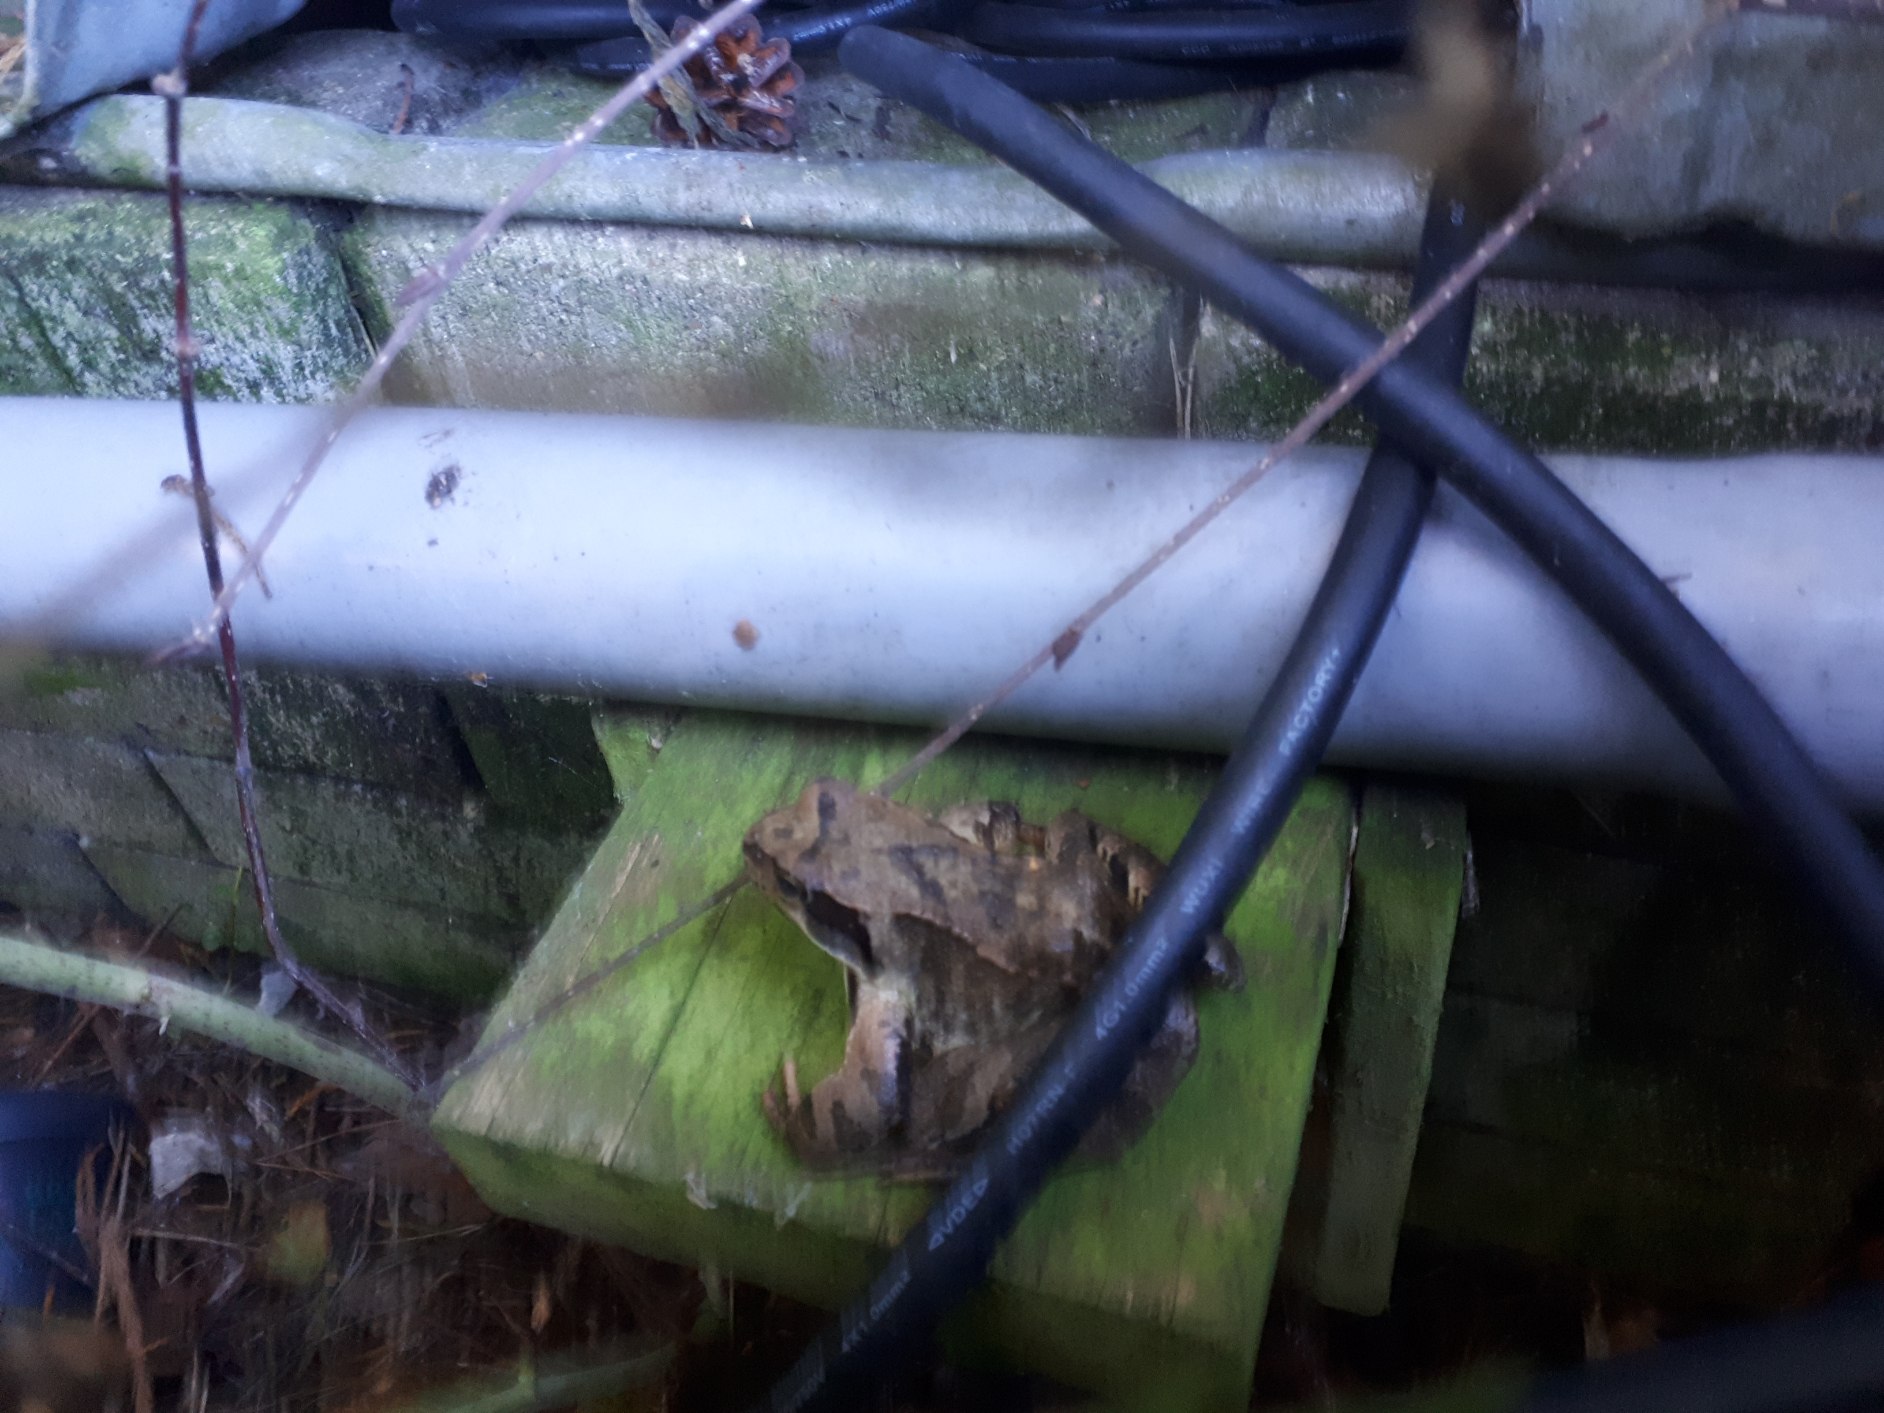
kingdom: Animalia
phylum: Chordata
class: Amphibia
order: Anura
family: Ranidae
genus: Rana
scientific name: Rana temporaria
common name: Butsnudet frø
